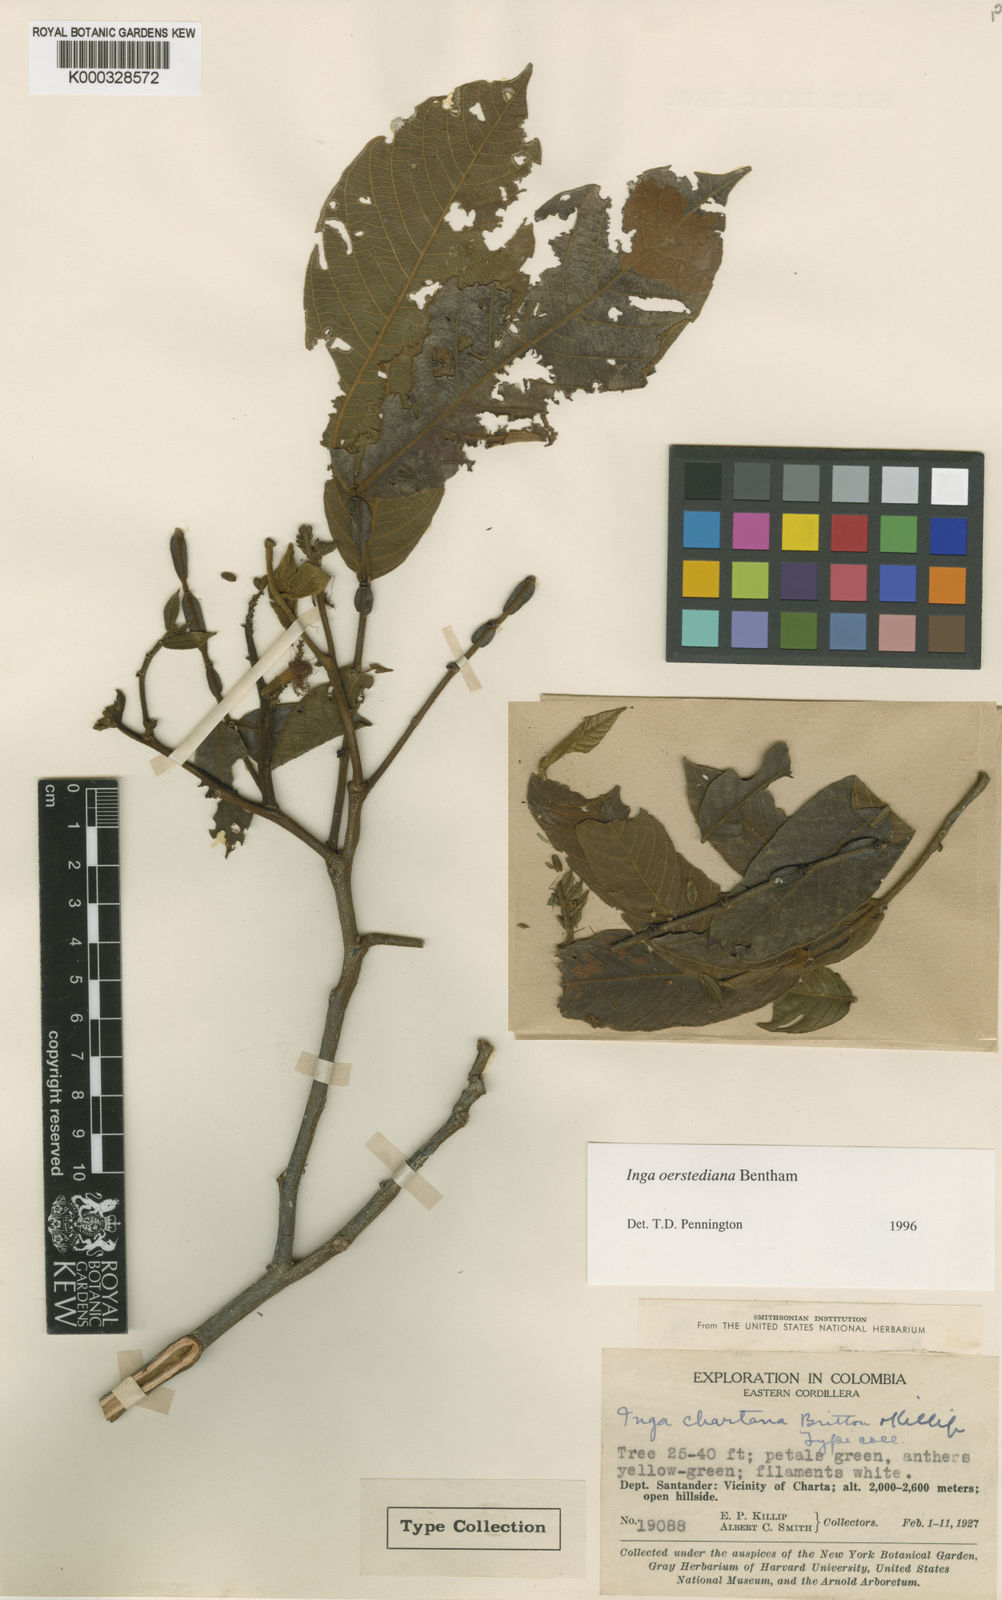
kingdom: Plantae
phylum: Tracheophyta
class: Magnoliopsida
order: Fabales
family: Fabaceae
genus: Inga
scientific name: Inga oerstediana
